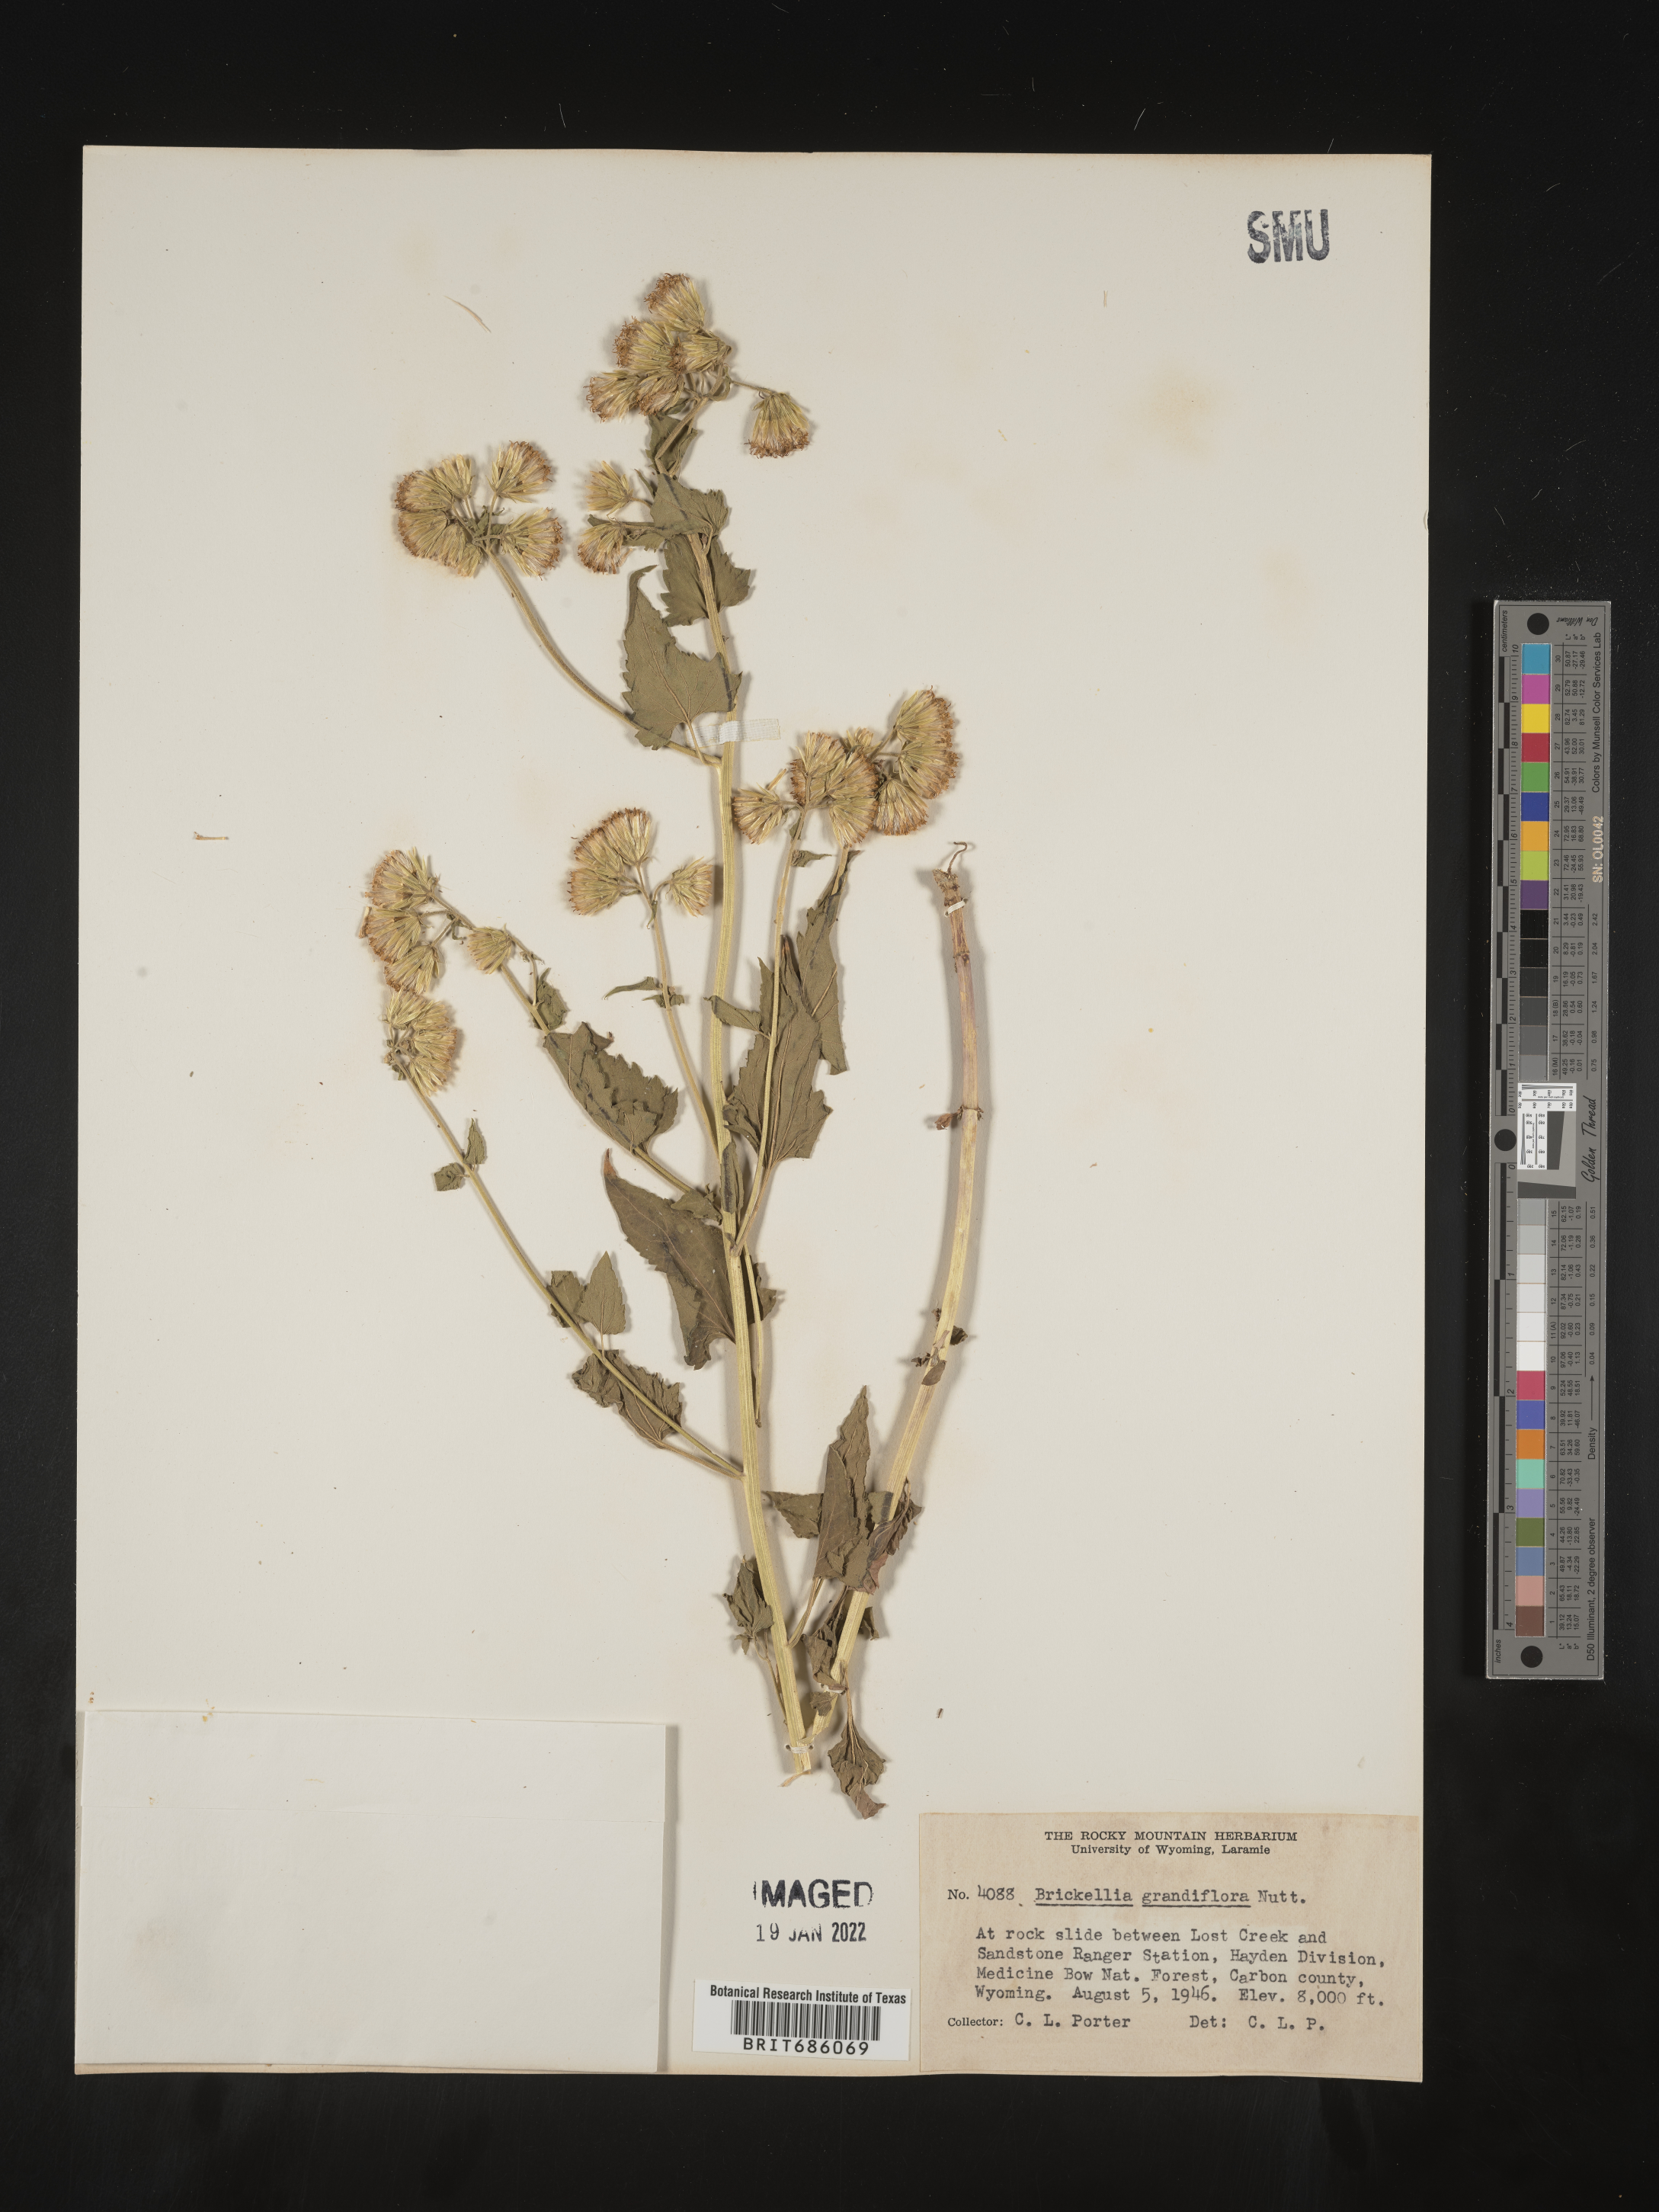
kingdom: Plantae
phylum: Tracheophyta
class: Magnoliopsida
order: Asterales
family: Asteraceae
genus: Brickellia
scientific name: Brickellia grandiflora
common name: Large-flowered brickellia
